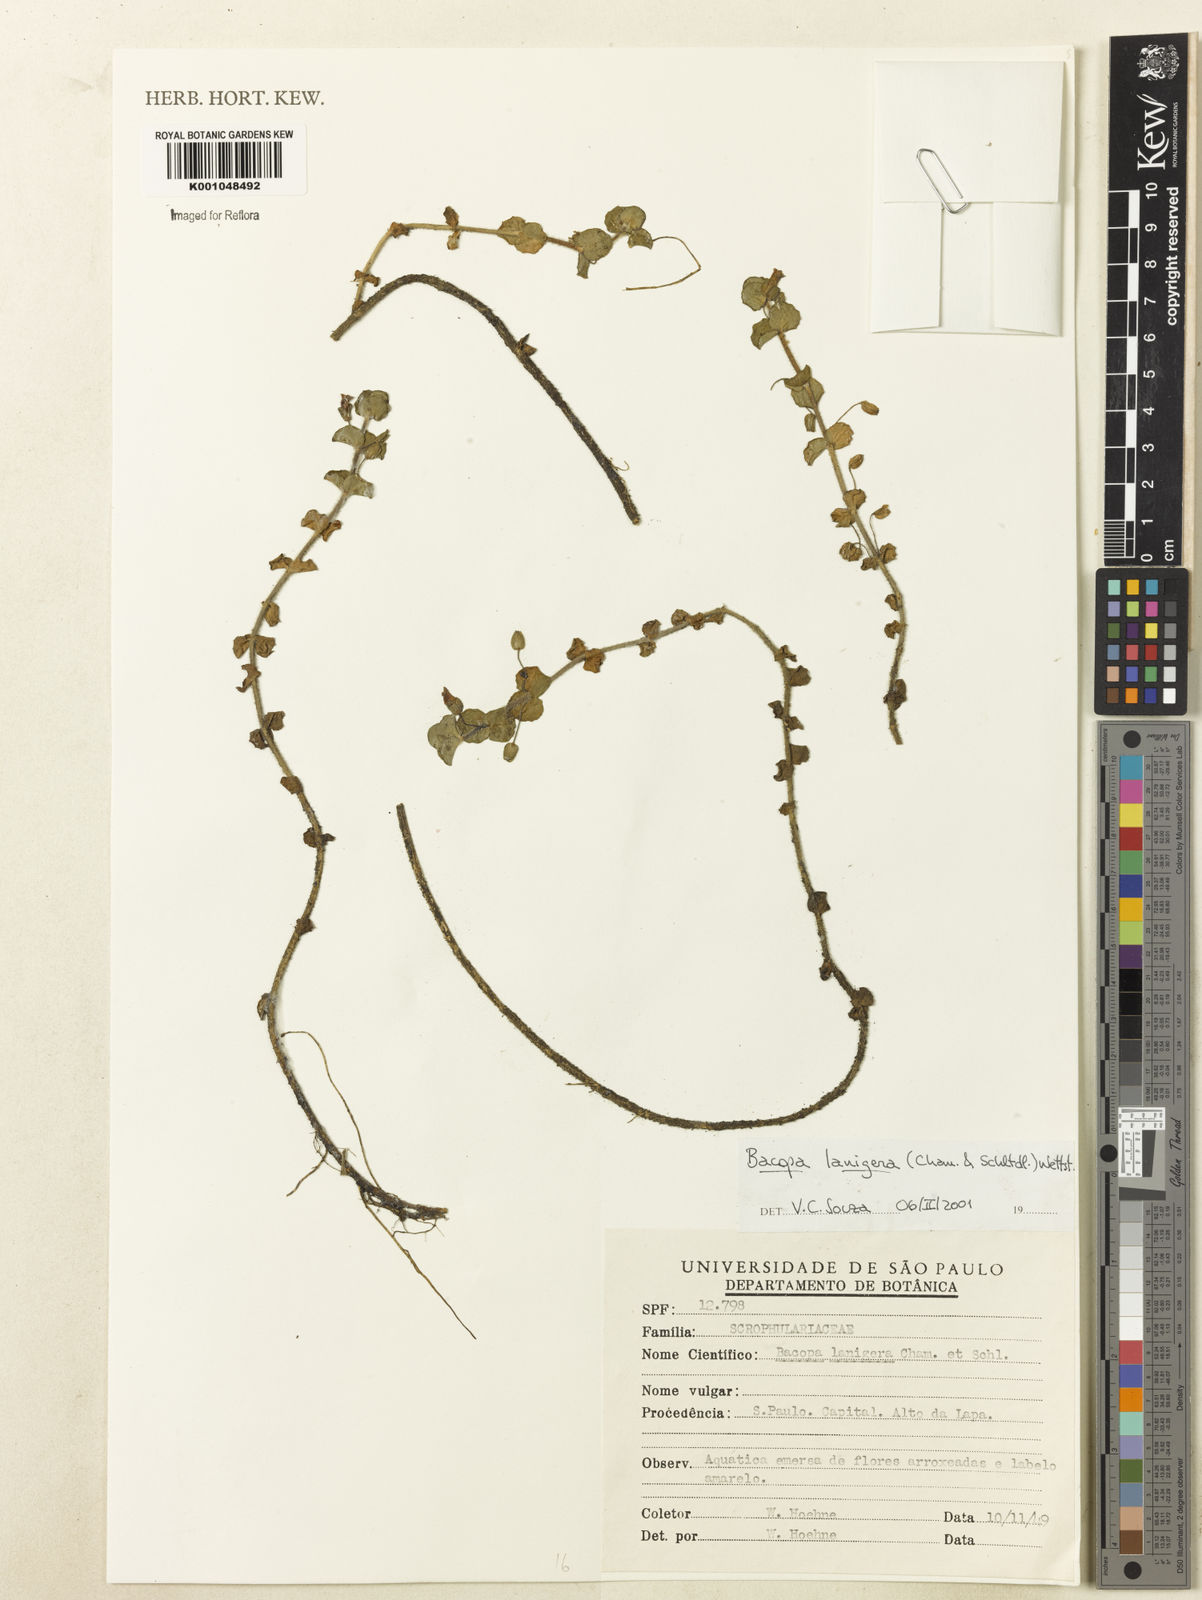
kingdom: Plantae
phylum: Tracheophyta
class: Magnoliopsida
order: Lamiales
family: Plantaginaceae
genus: Bacopa
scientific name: Bacopa lanigera
